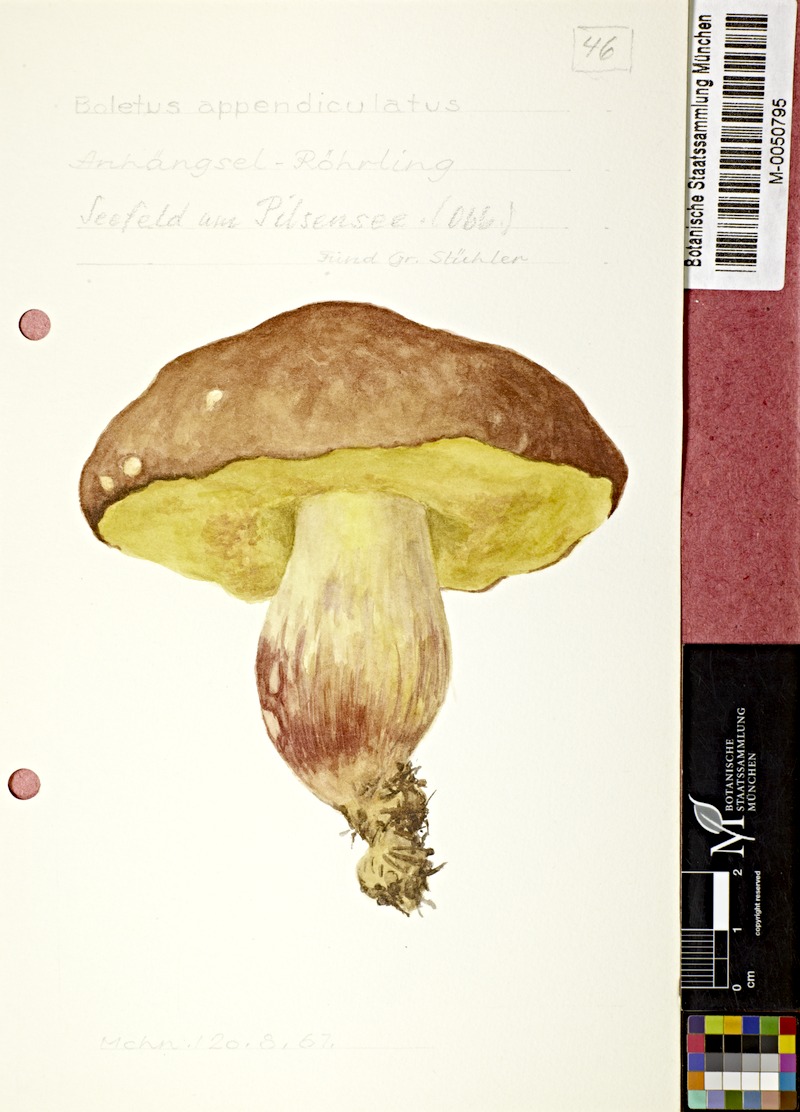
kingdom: Fungi
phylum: Basidiomycota
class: Agaricomycetes
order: Boletales
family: Boletaceae
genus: Butyriboletus
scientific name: Butyriboletus appendiculatus
